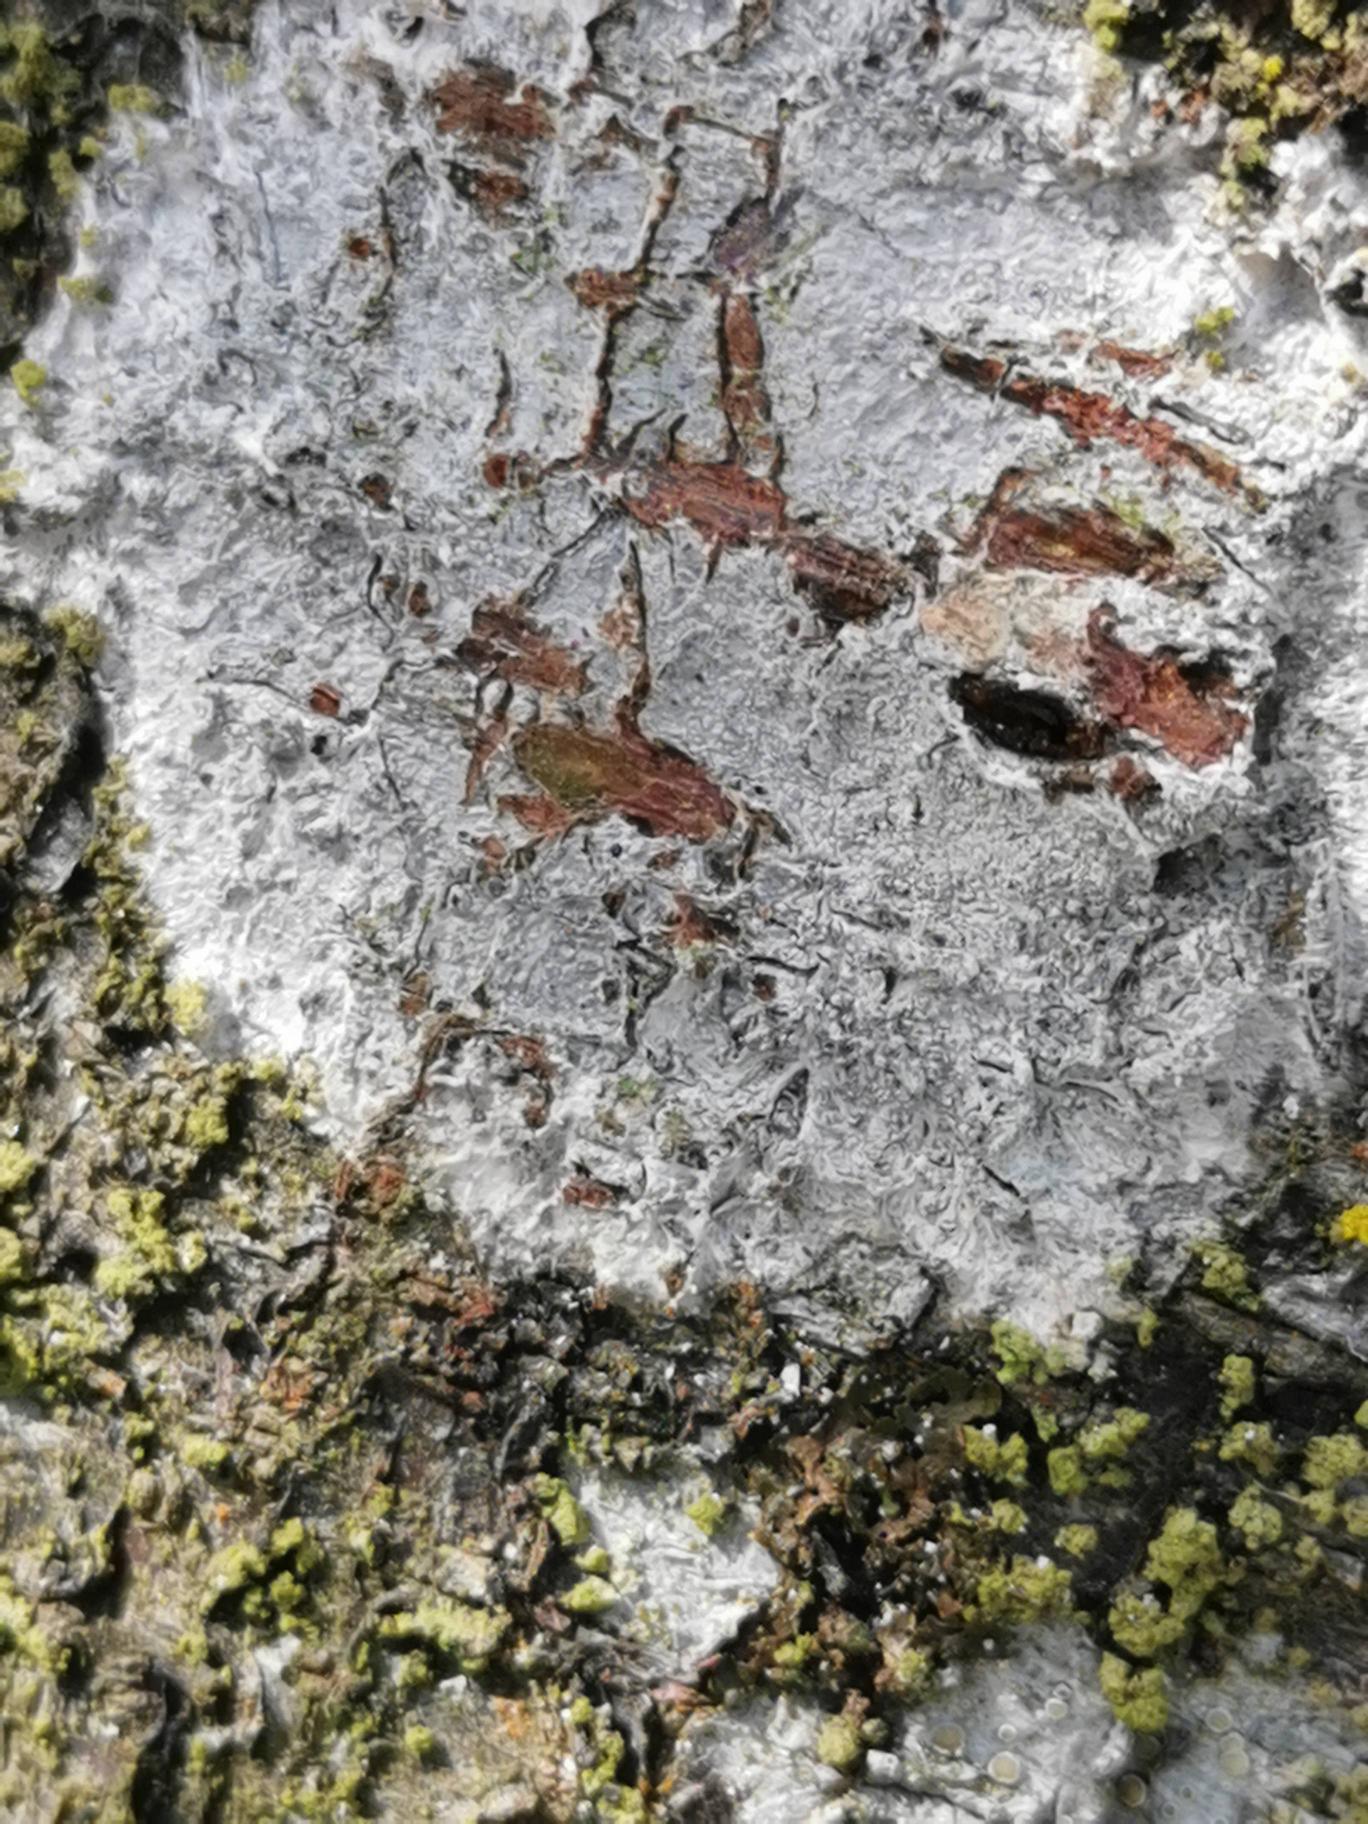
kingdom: Fungi
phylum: Ascomycota
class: Lecanoromycetes
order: Ostropales
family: Phlyctidaceae
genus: Phlyctis
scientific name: Phlyctis argena
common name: Almindelig sølvlav
